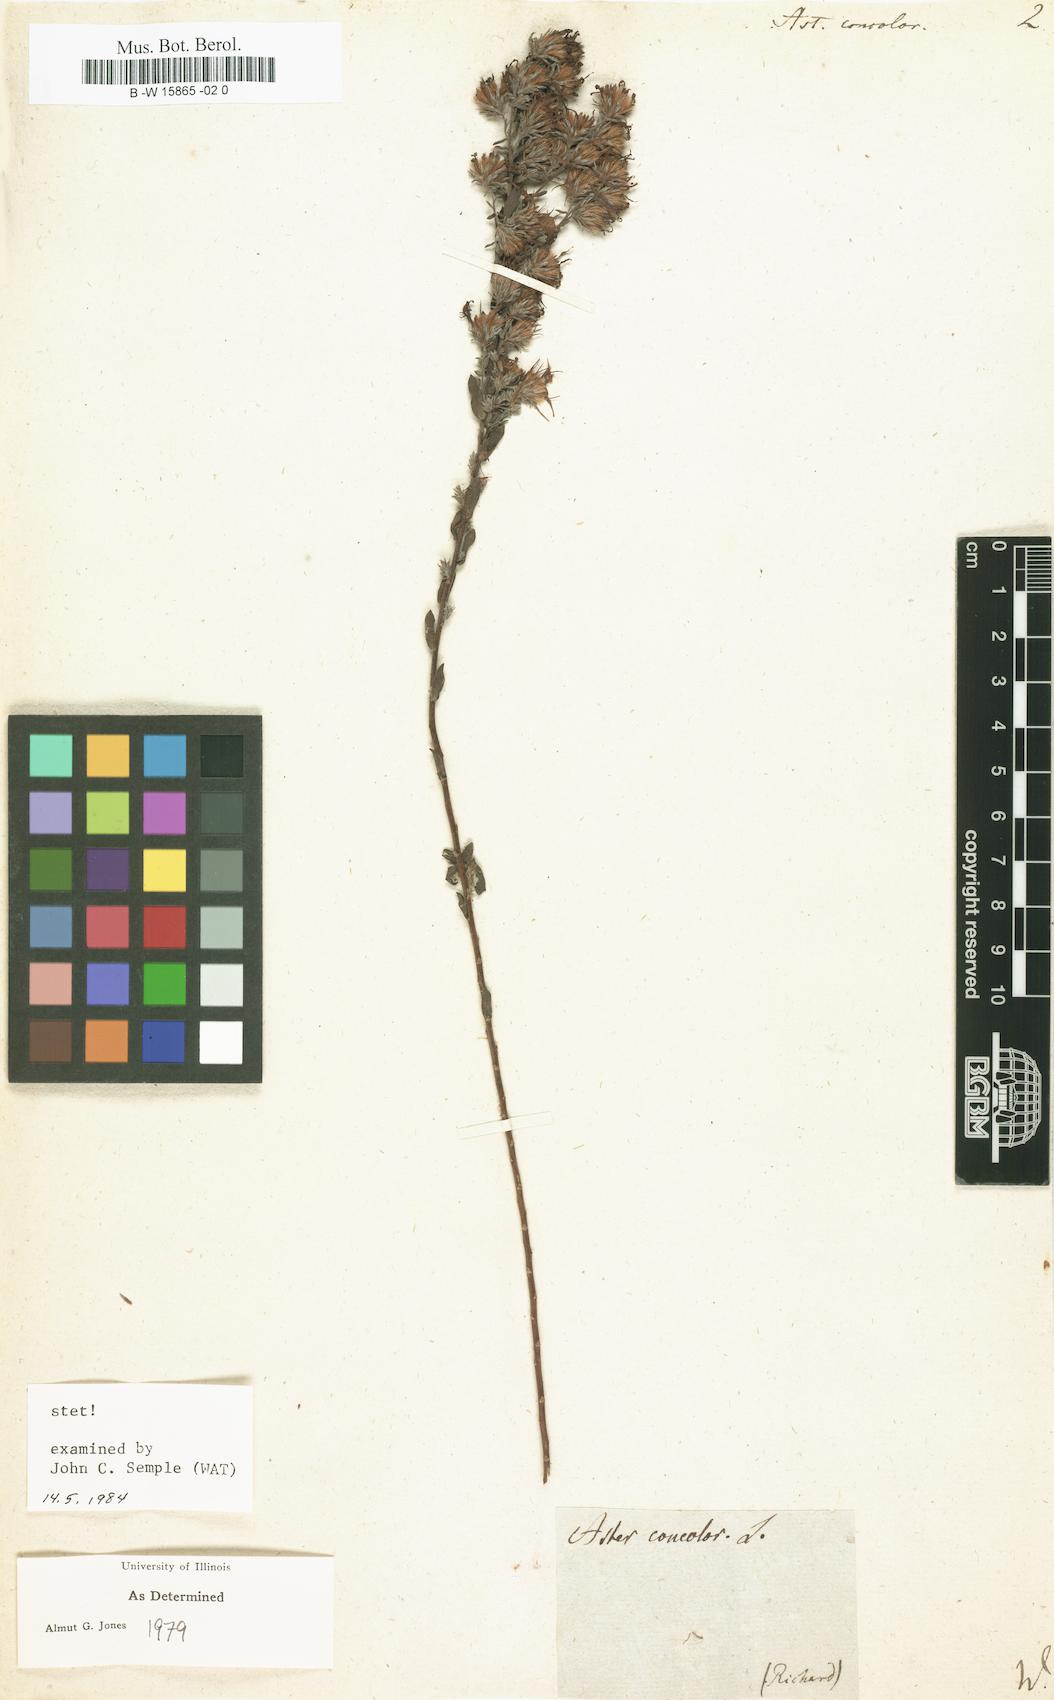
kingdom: Plantae
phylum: Tracheophyta
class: Magnoliopsida
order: Asterales
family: Asteraceae
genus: Symphyotrichum
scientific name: Symphyotrichum concolor
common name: Eastern silver aster
